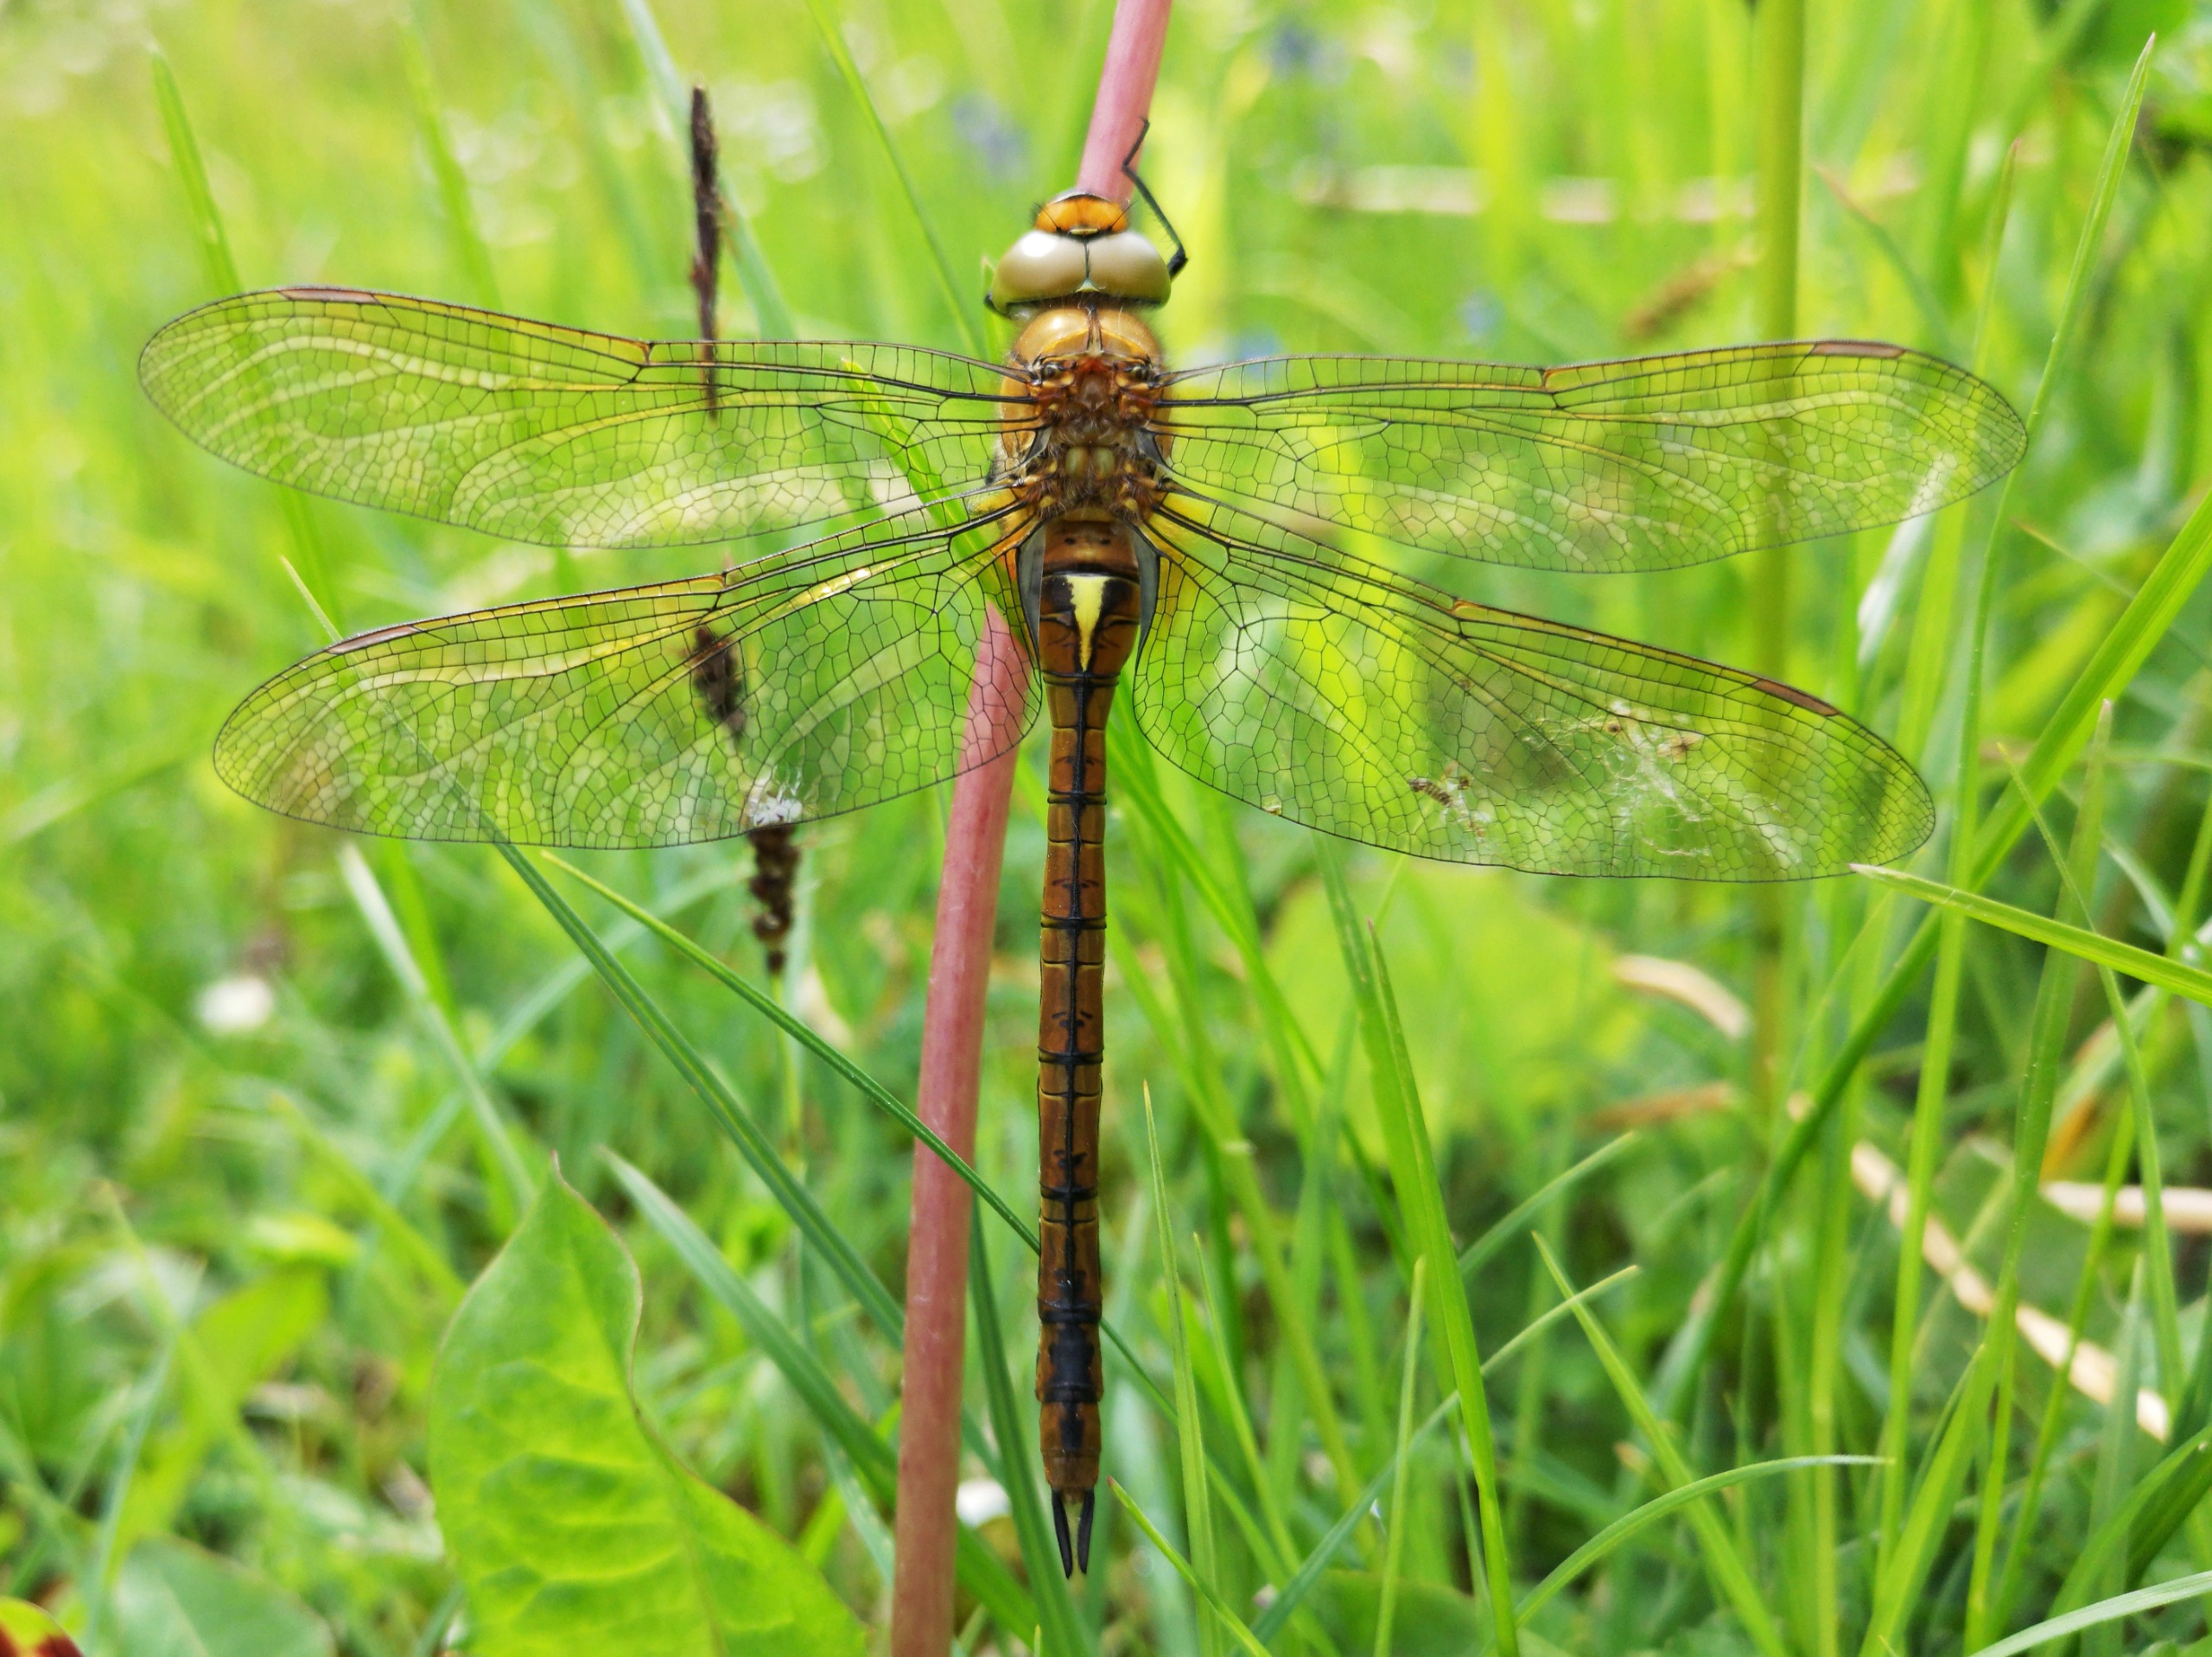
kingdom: Animalia
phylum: Arthropoda
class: Insecta
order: Odonata
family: Aeshnidae
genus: Aeshna
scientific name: Aeshna isoceles
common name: Kileplet-mosaikguldsmed
